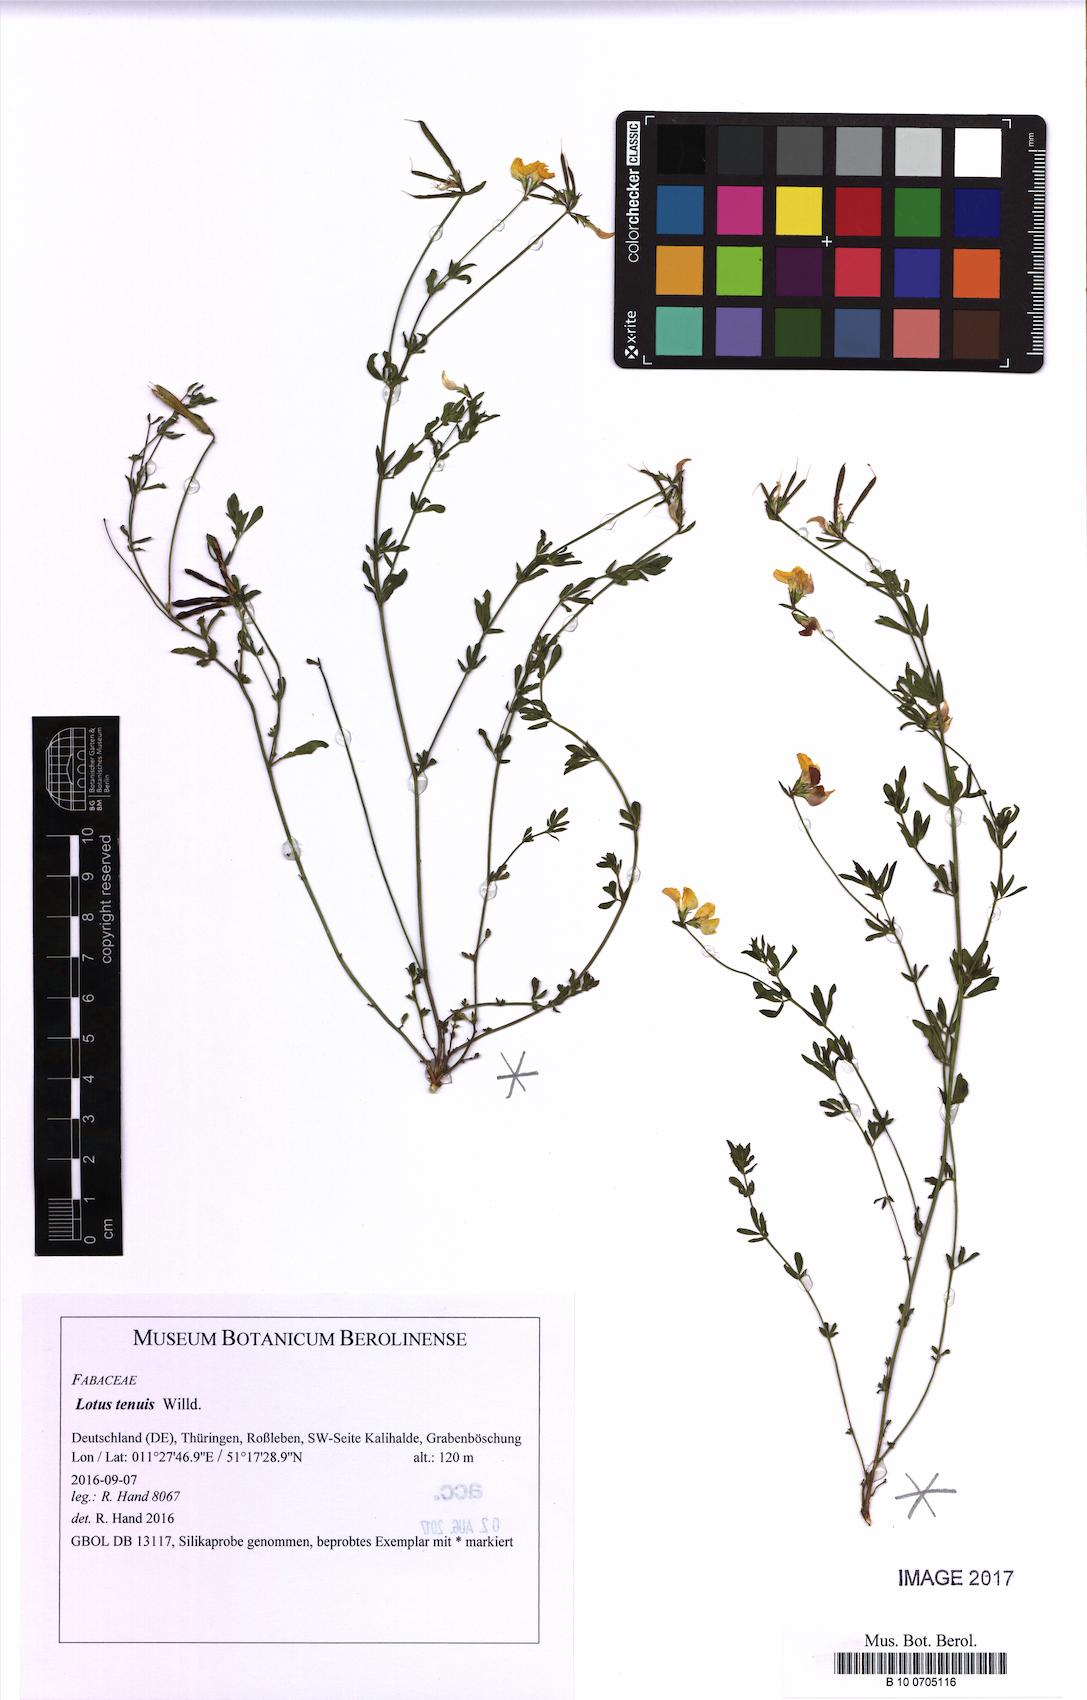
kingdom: Plantae
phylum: Tracheophyta
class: Magnoliopsida
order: Fabales
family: Fabaceae
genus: Lotus
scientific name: Lotus tenuis
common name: Narrow-leaved bird's-foot-trefoil
